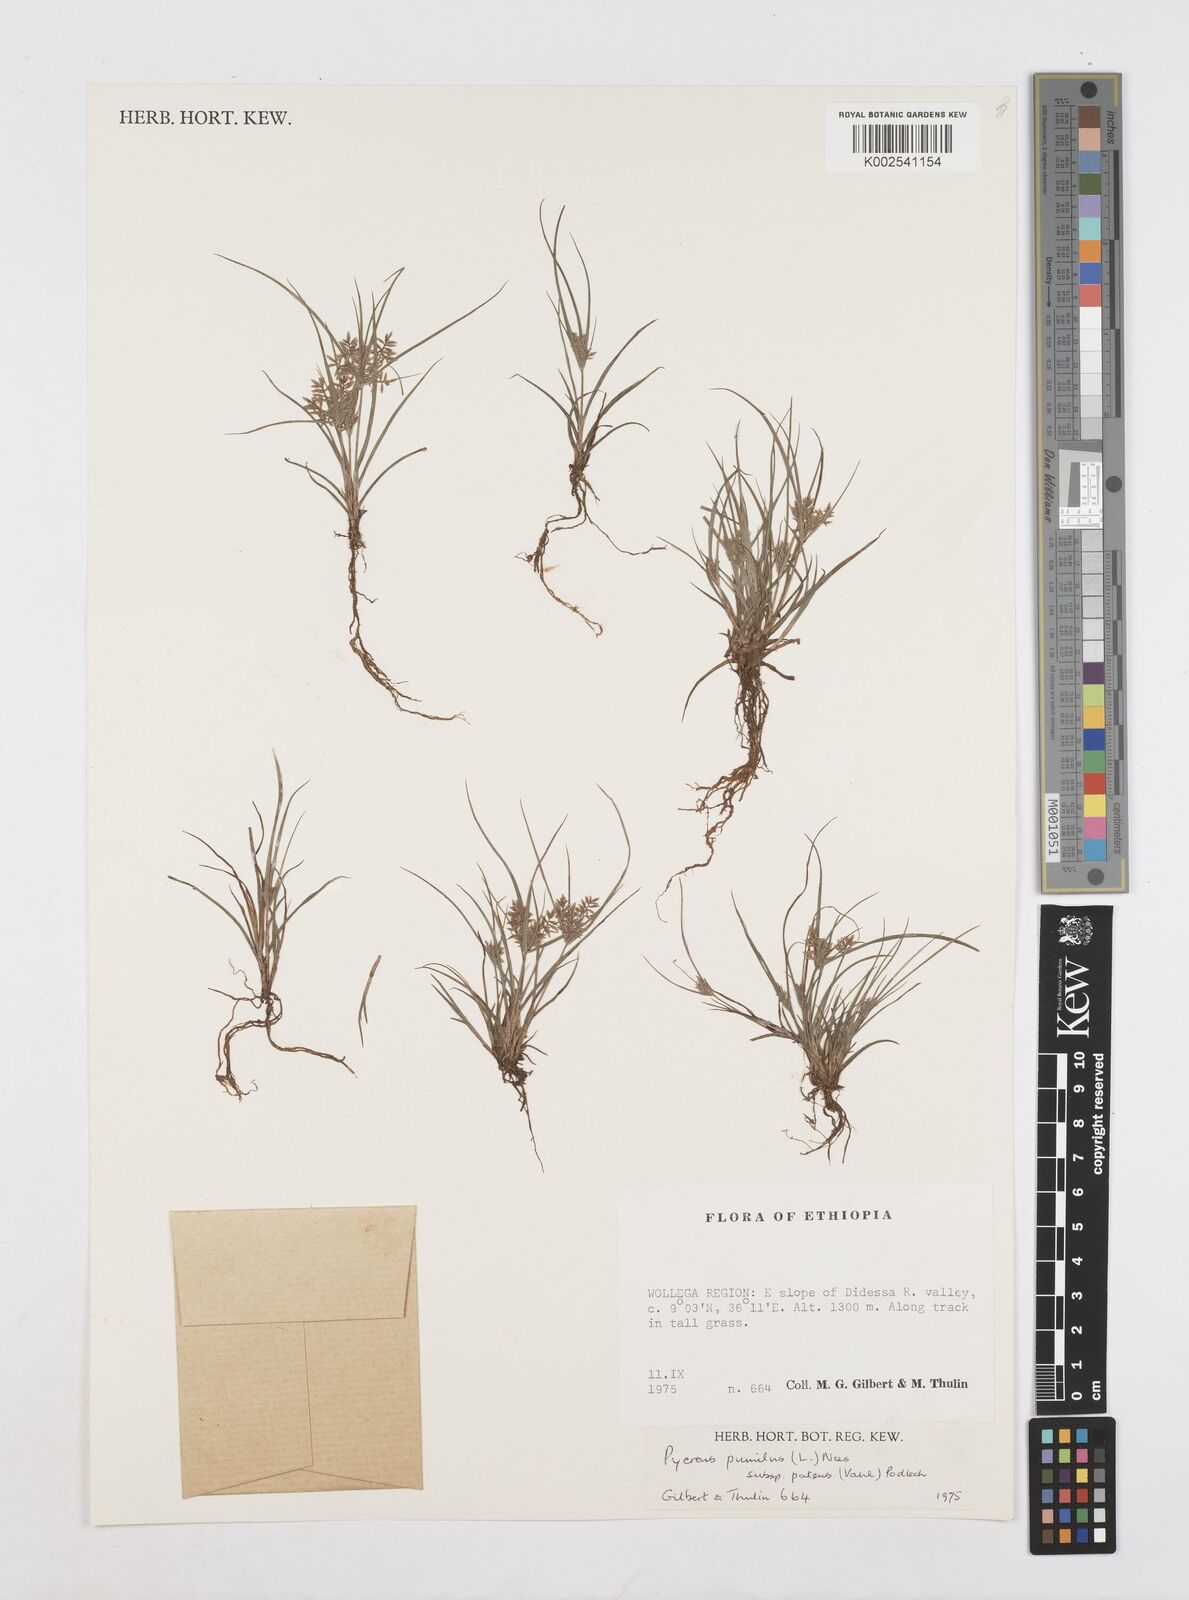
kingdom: Plantae
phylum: Tracheophyta
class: Liliopsida
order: Poales
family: Cyperaceae
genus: Cyperus
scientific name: Cyperus pumilus
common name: Low flatsedge
